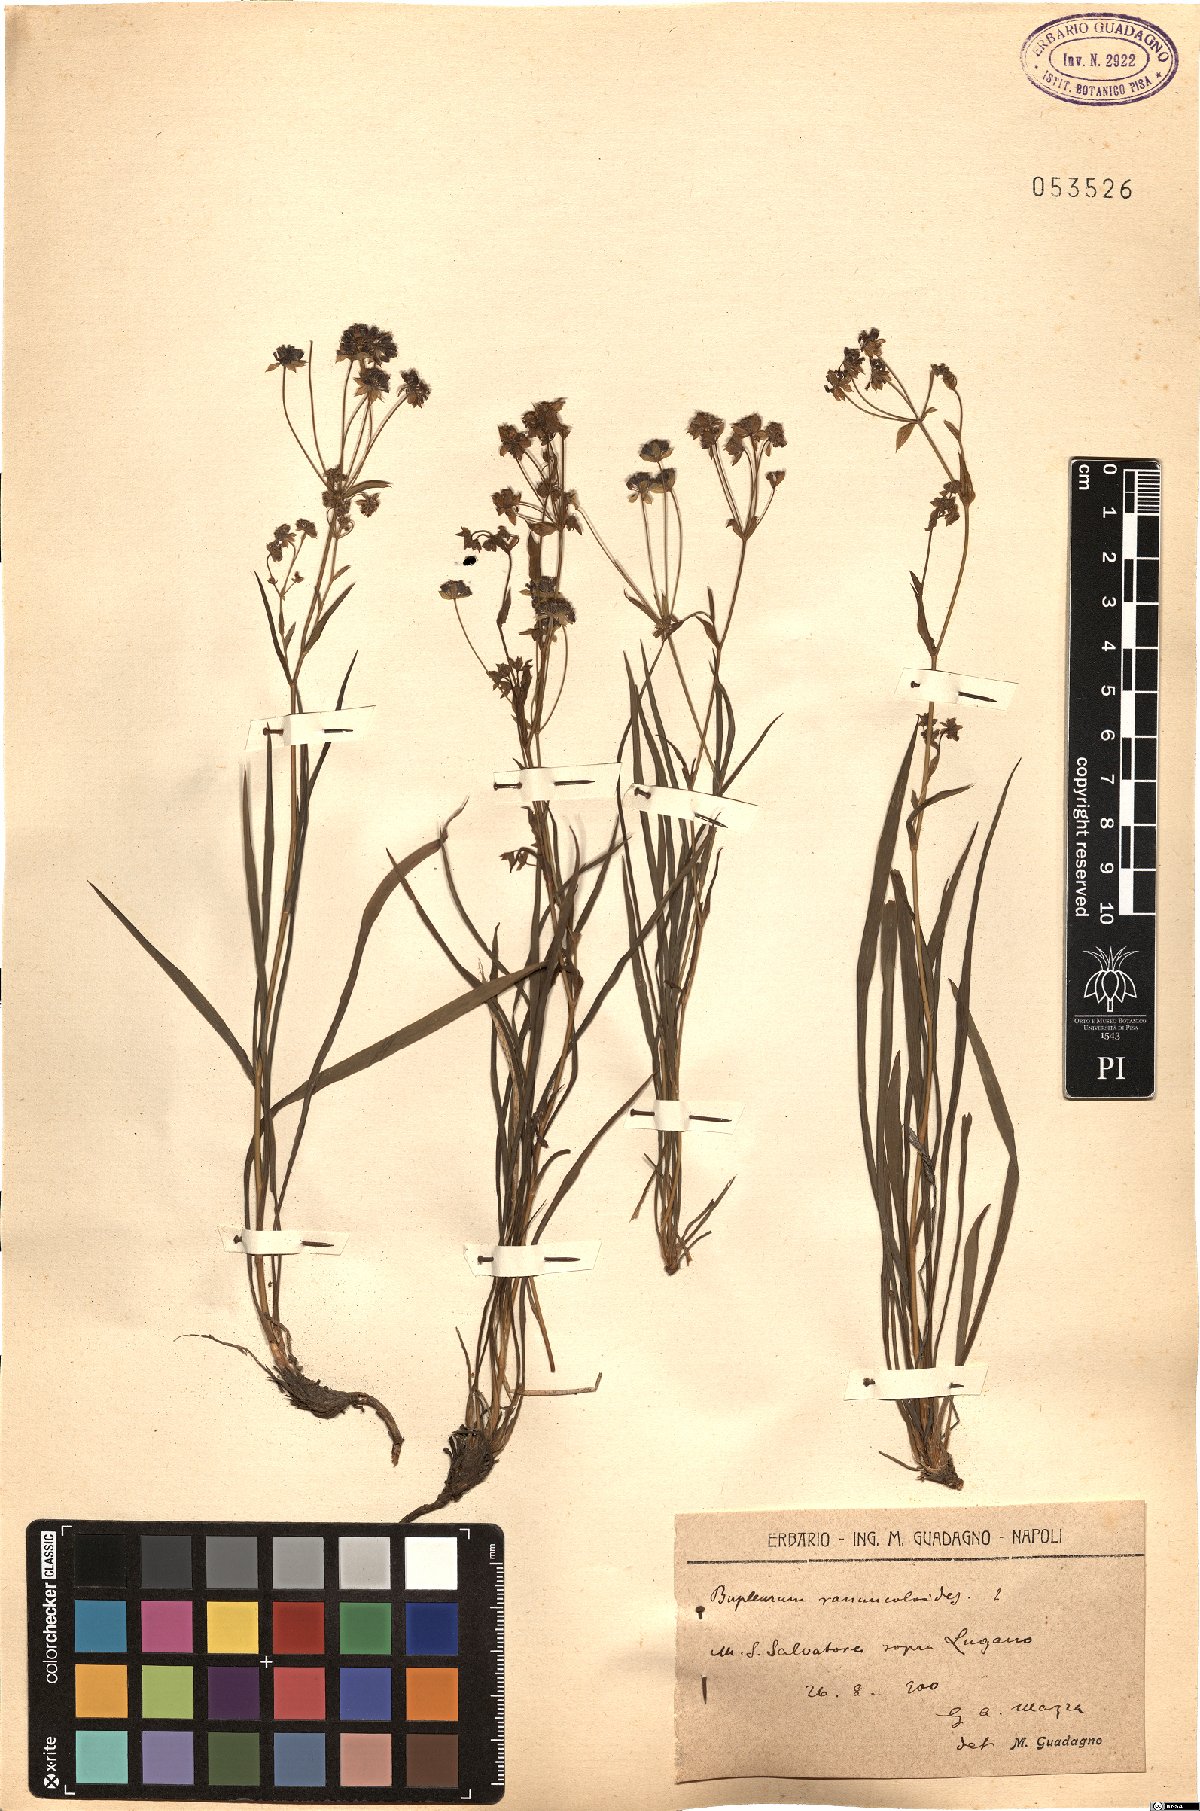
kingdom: Plantae
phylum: Tracheophyta
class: Magnoliopsida
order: Apiales
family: Apiaceae
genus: Bupleurum
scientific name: Bupleurum ranunculoides
